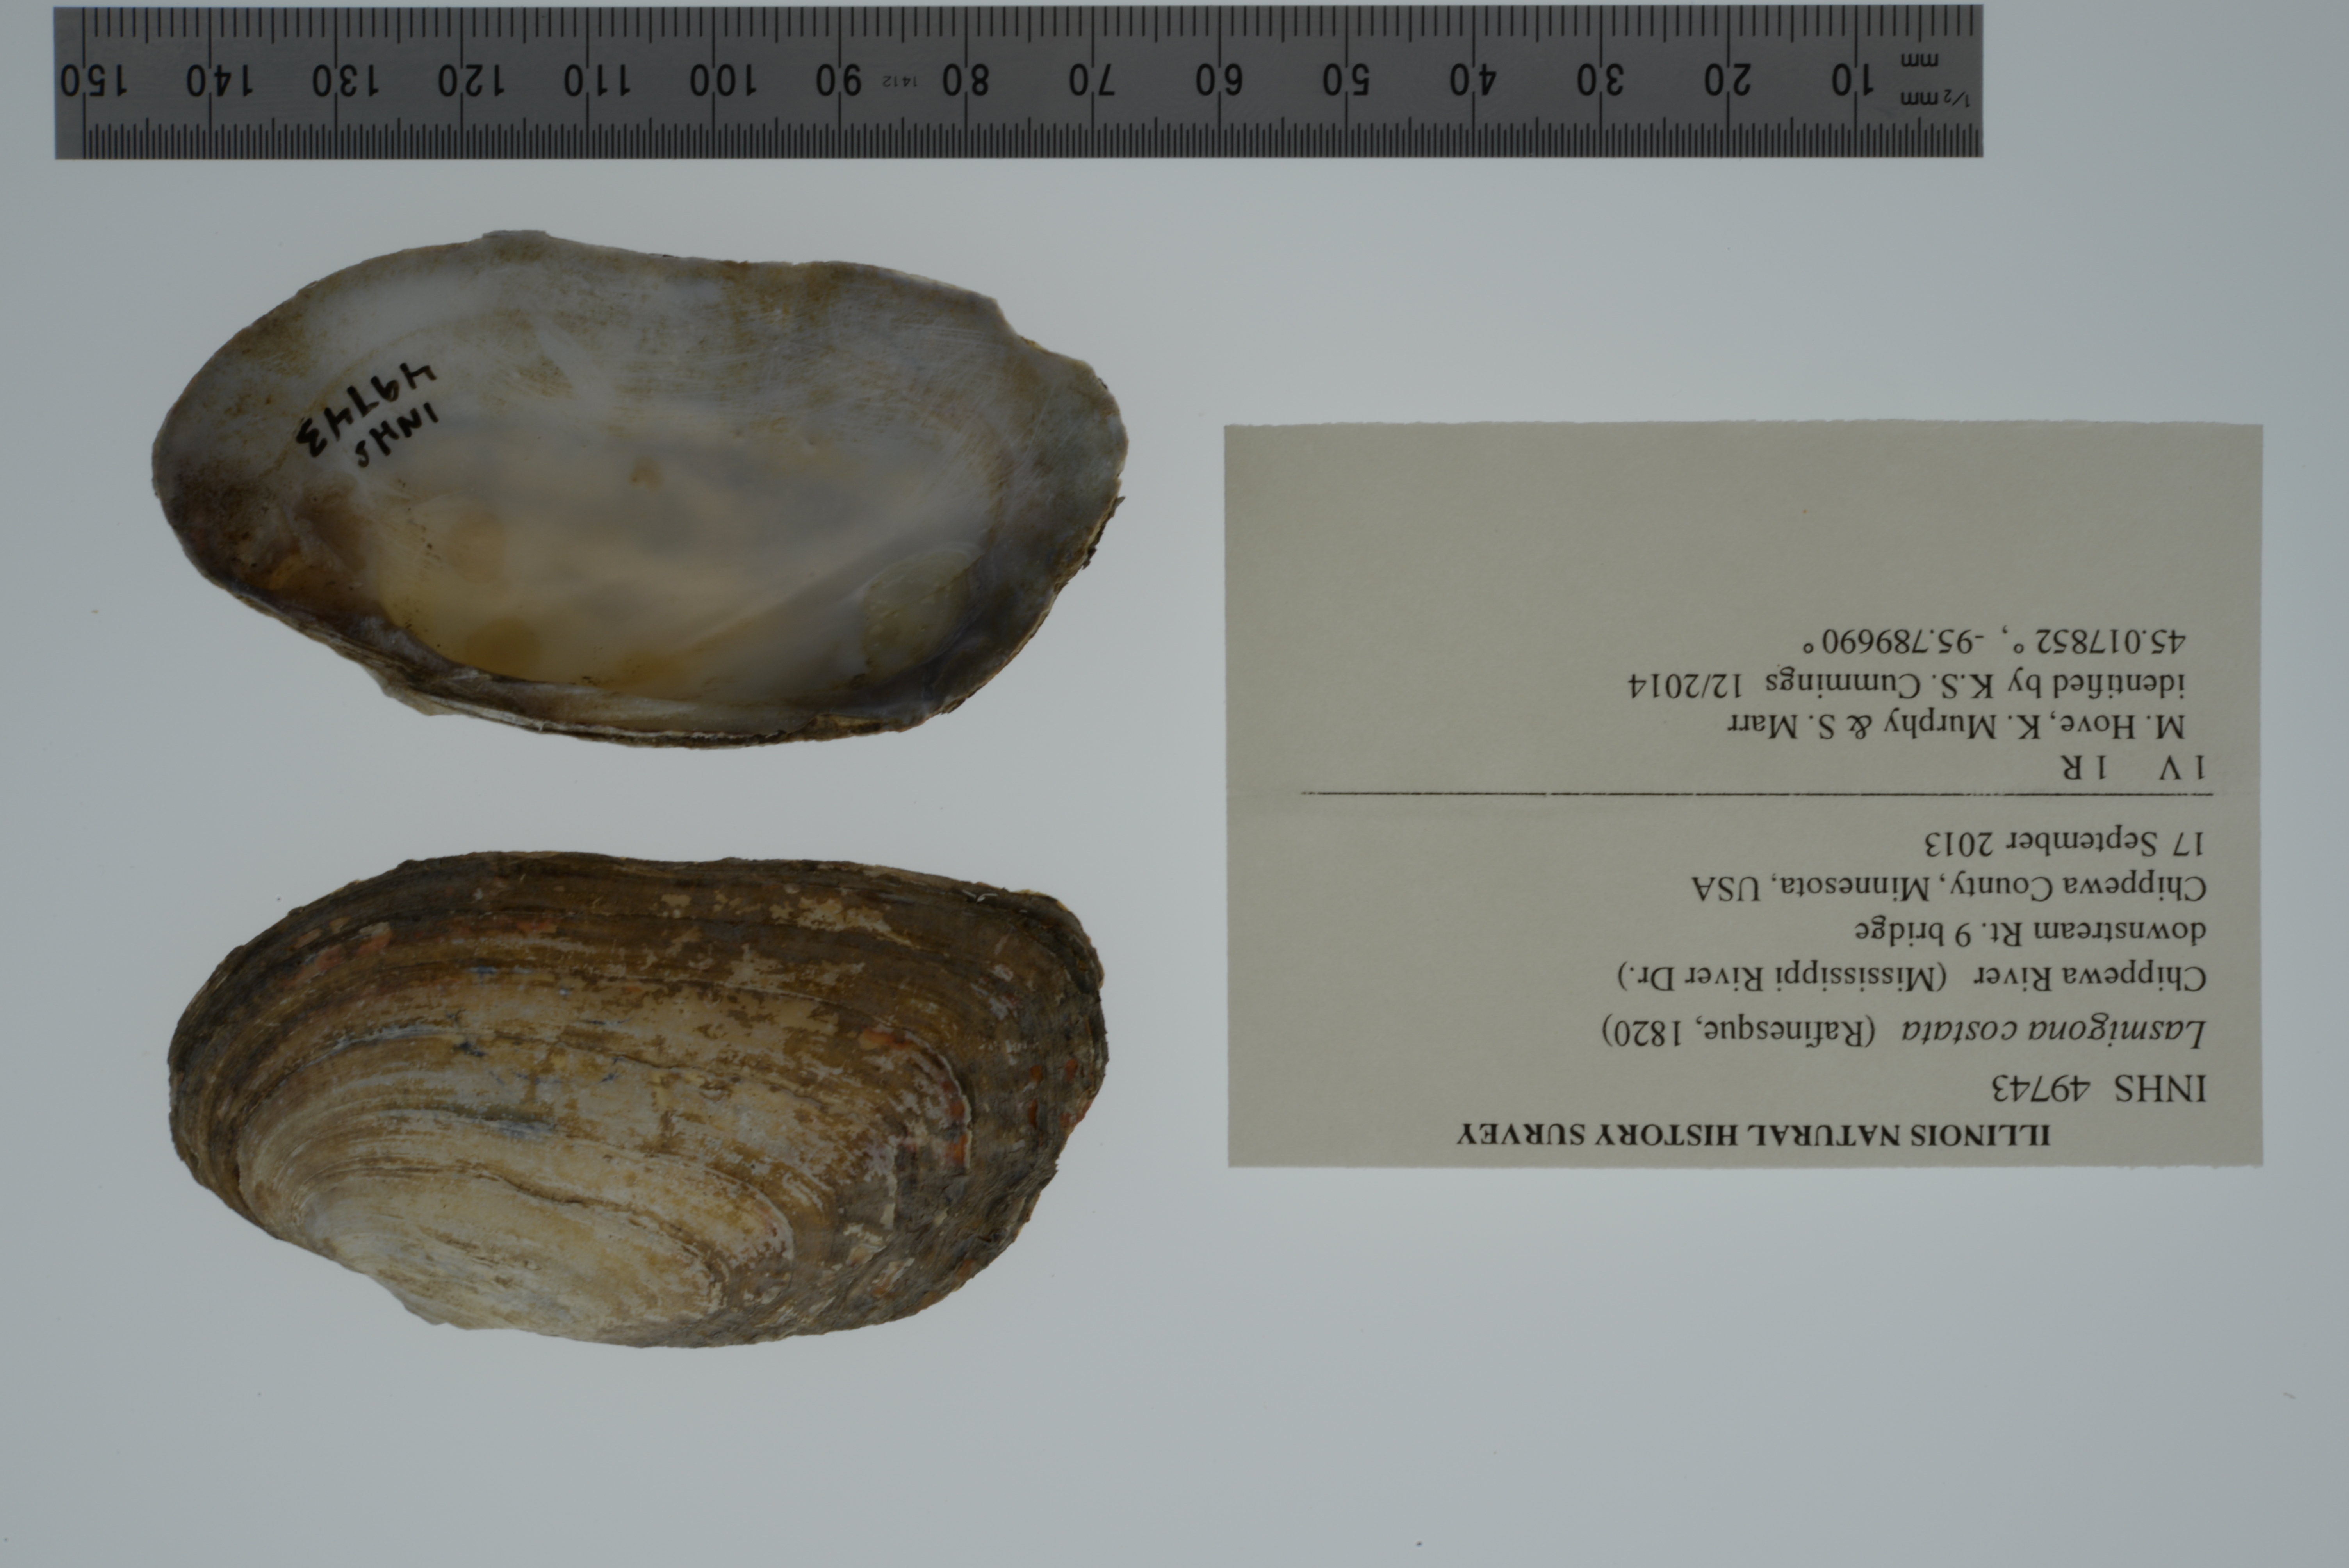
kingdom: Animalia
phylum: Mollusca
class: Bivalvia
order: Unionida
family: Unionidae
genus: Lasmigona
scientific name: Lasmigona costata
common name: Flutedshell
